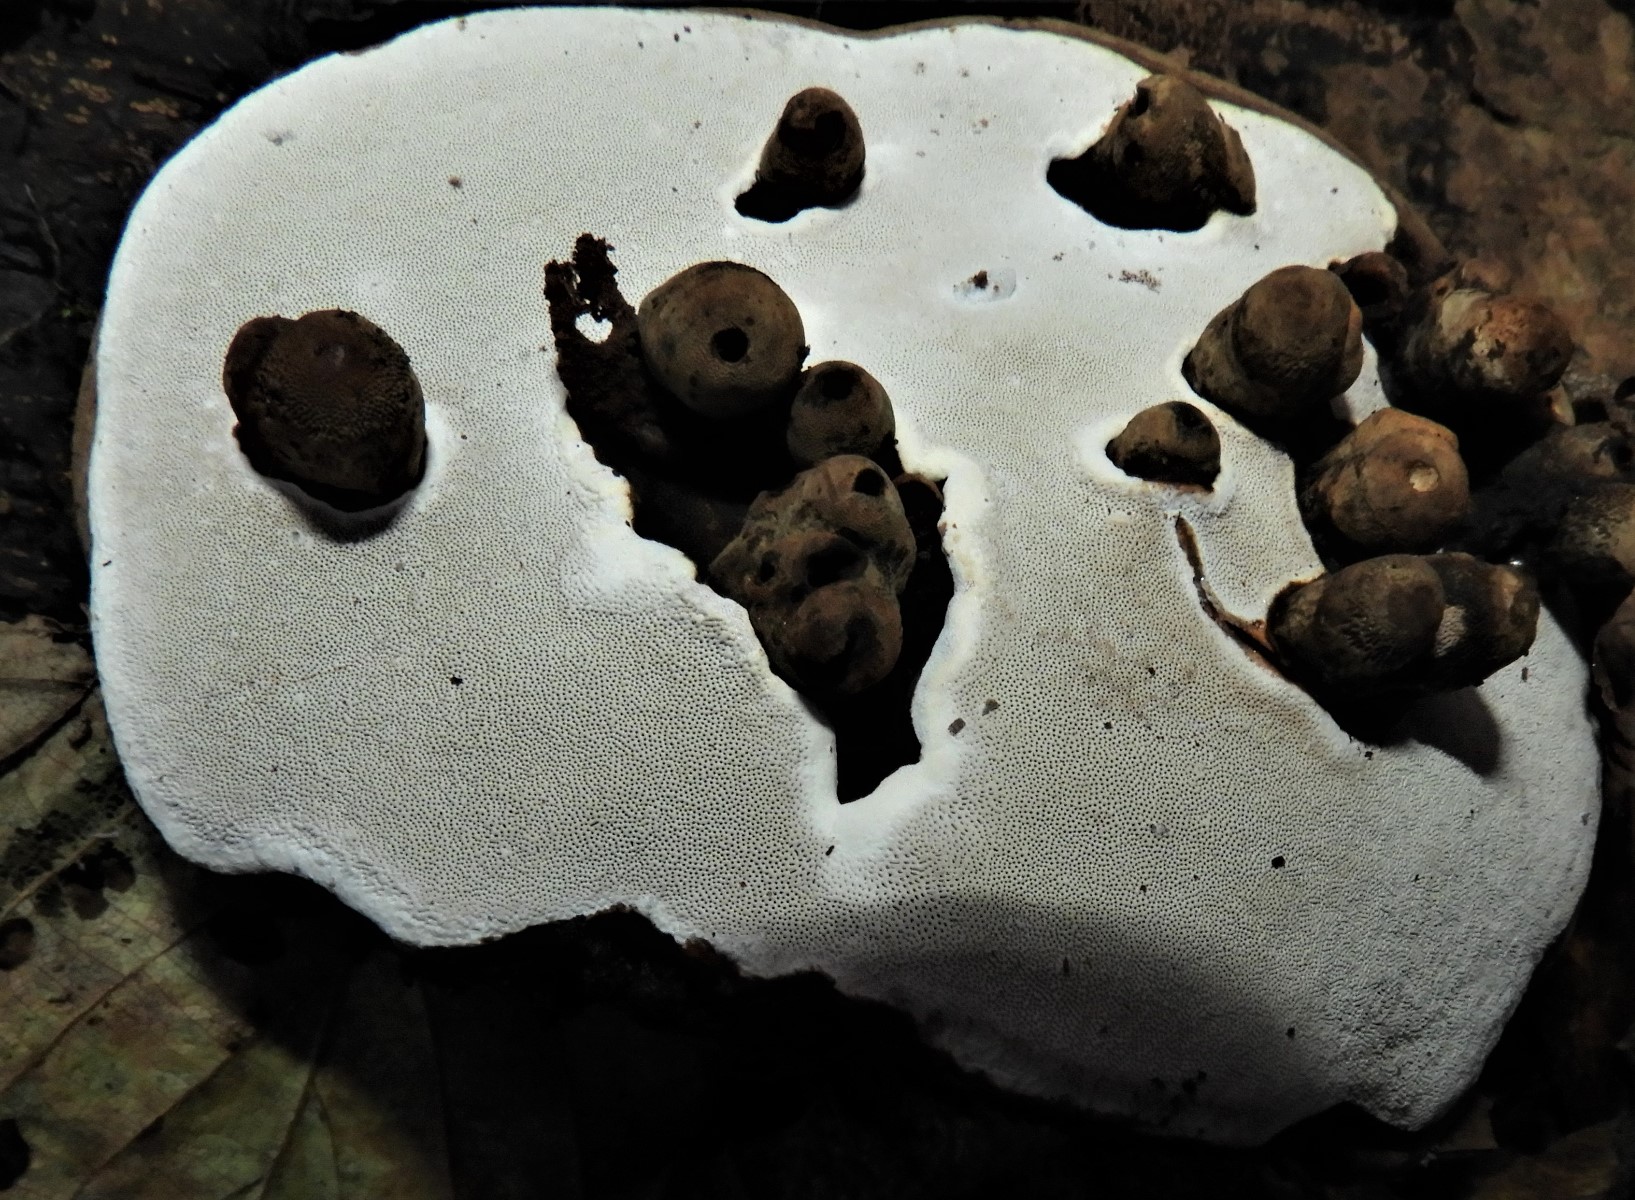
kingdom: Fungi
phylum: Basidiomycota
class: Agaricomycetes
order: Polyporales
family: Polyporaceae
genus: Ganoderma
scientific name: Ganoderma applanatum
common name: flad lakporesvamp
